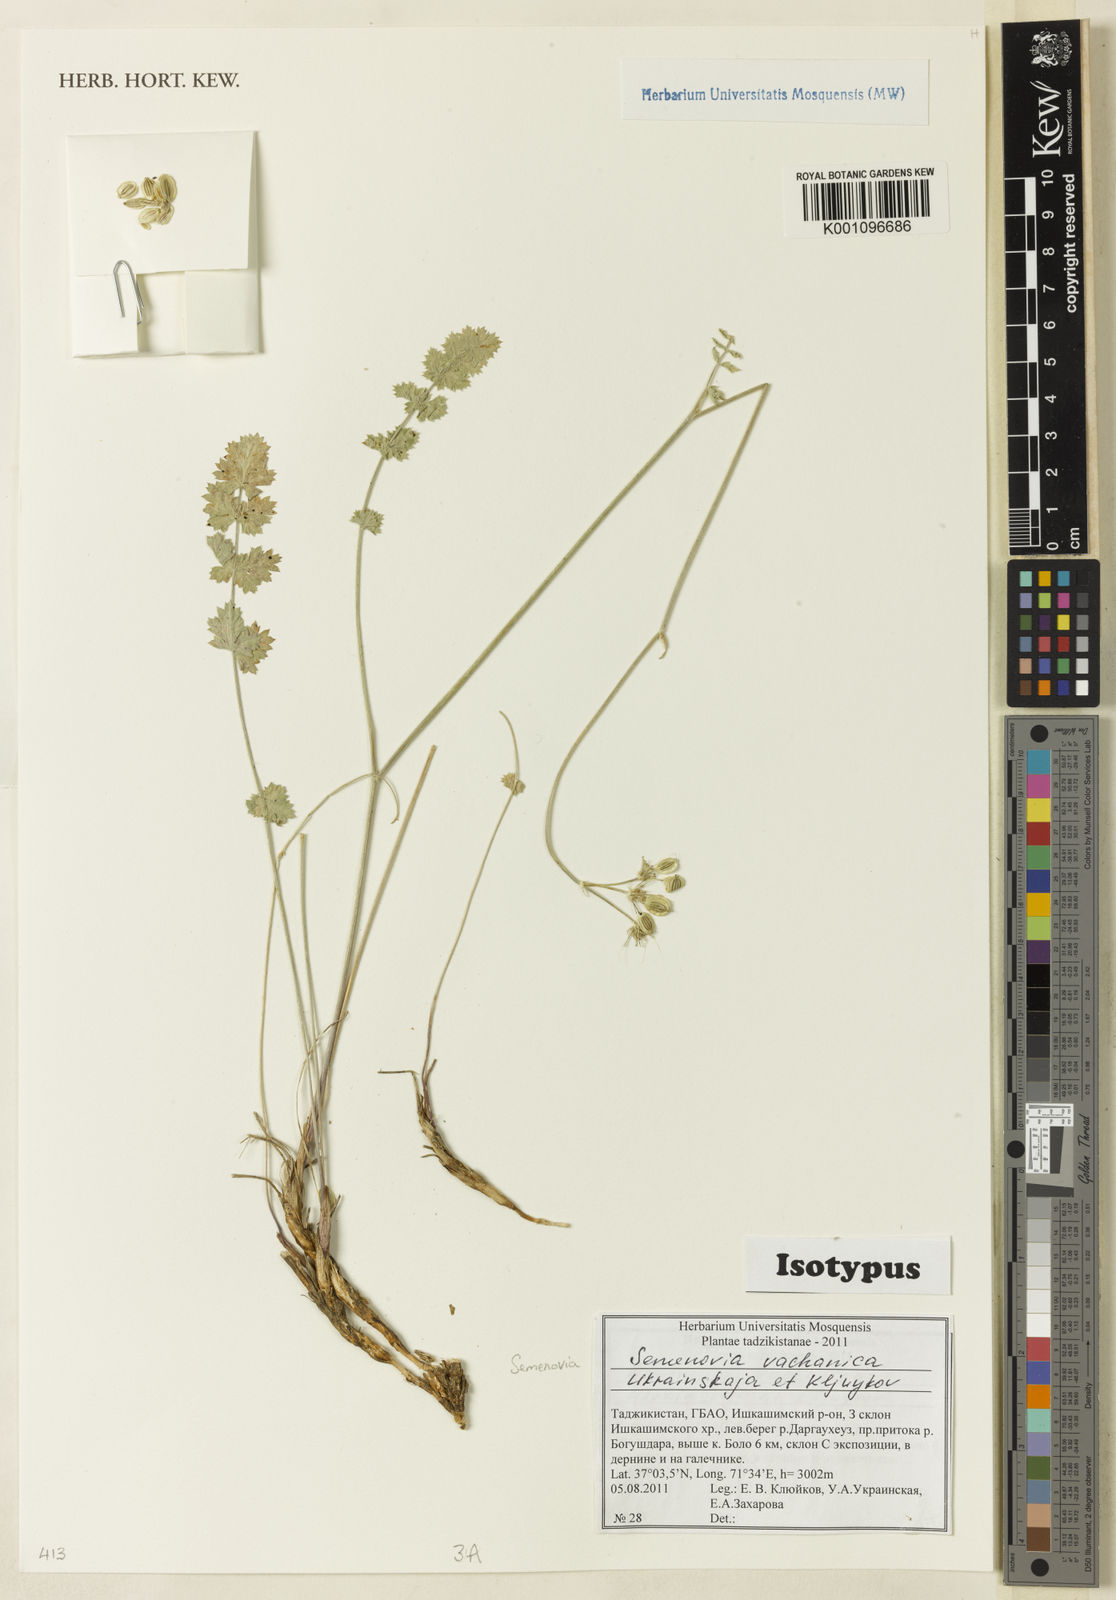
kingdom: Plantae
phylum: Tracheophyta
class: Magnoliopsida
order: Apiales
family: Apiaceae
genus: Semenovia
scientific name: Semenovia vachanica
